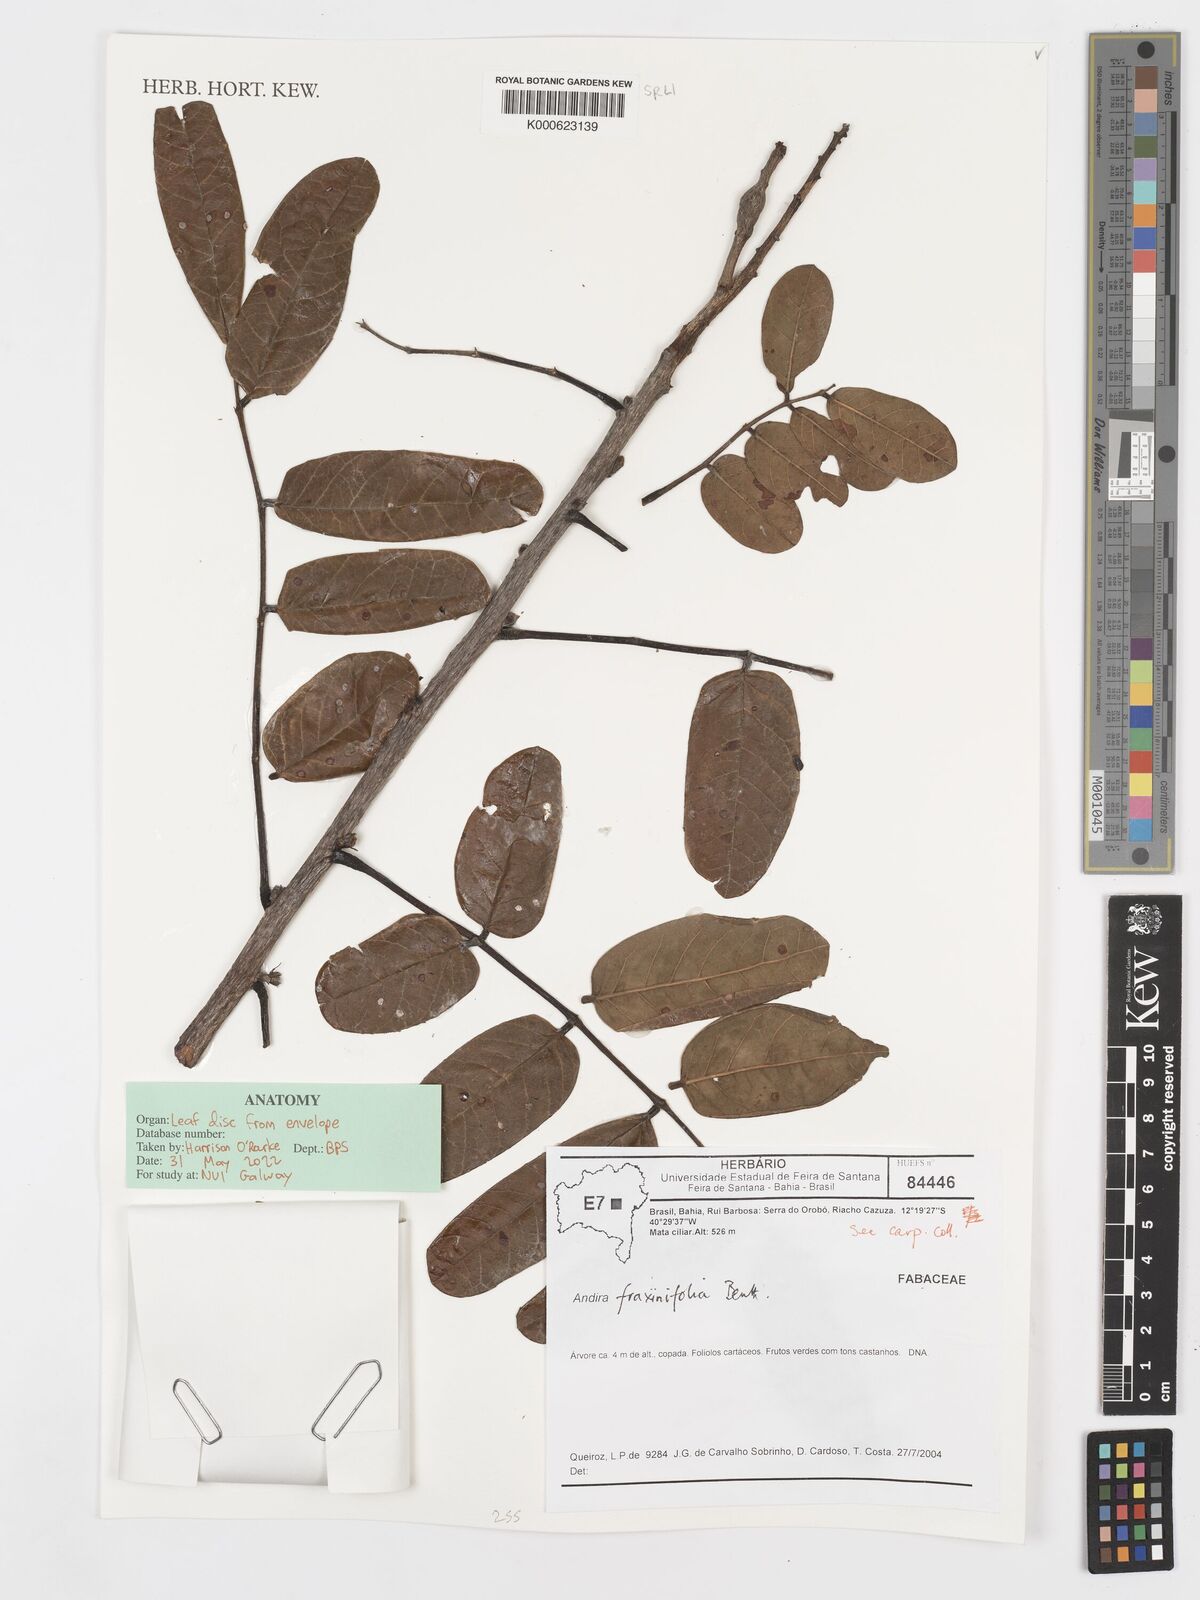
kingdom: Plantae
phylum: Tracheophyta
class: Magnoliopsida
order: Fabales
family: Fabaceae
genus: Andira
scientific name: Andira fraxinifolia
